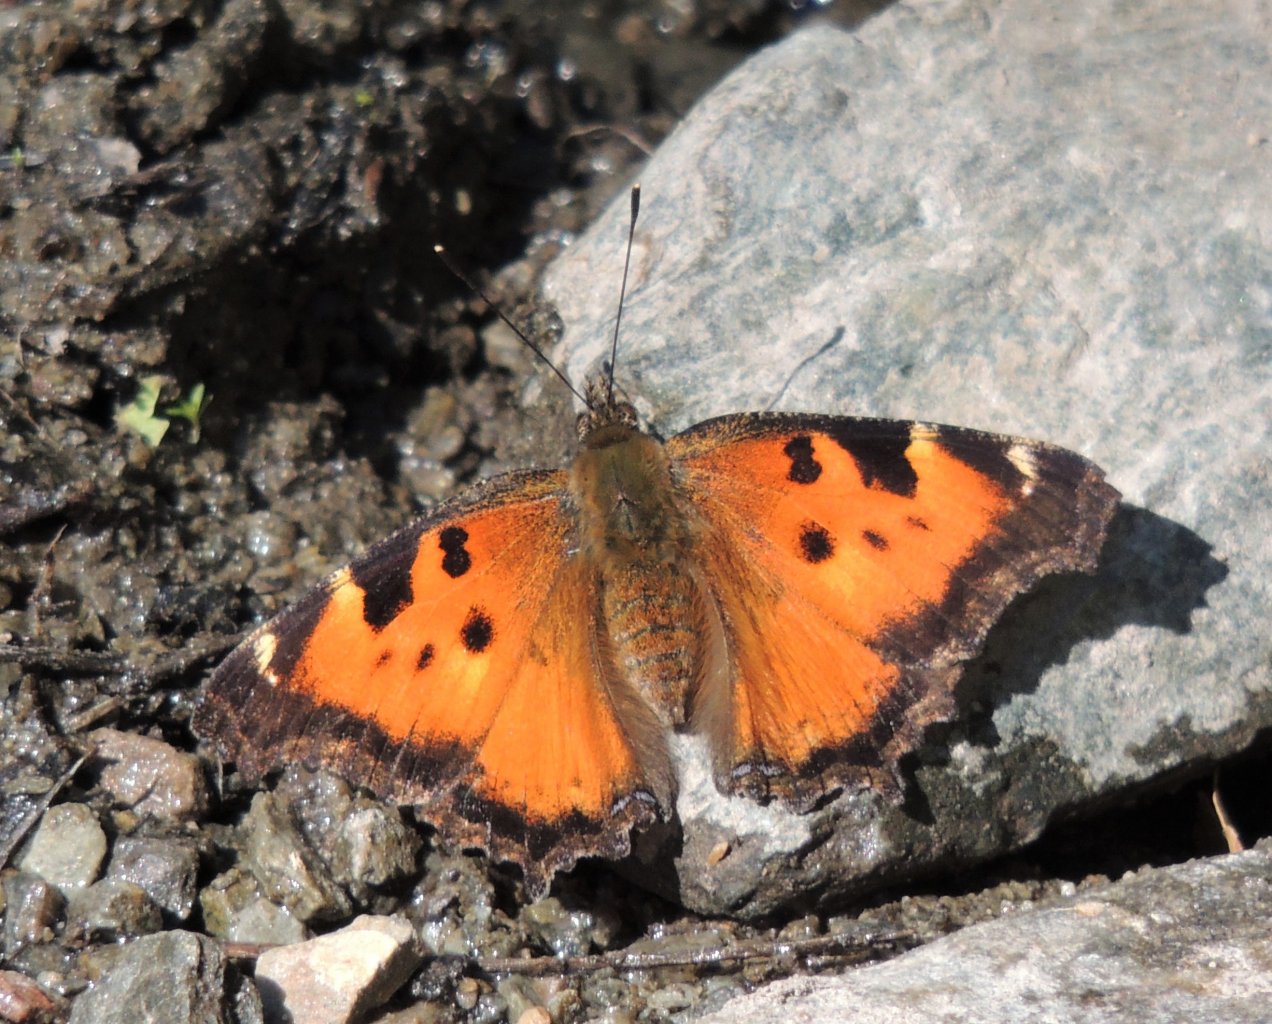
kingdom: Animalia
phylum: Arthropoda
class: Insecta
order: Lepidoptera
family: Nymphalidae
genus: Nymphalis
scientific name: Nymphalis californica
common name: California Tortoiseshell
